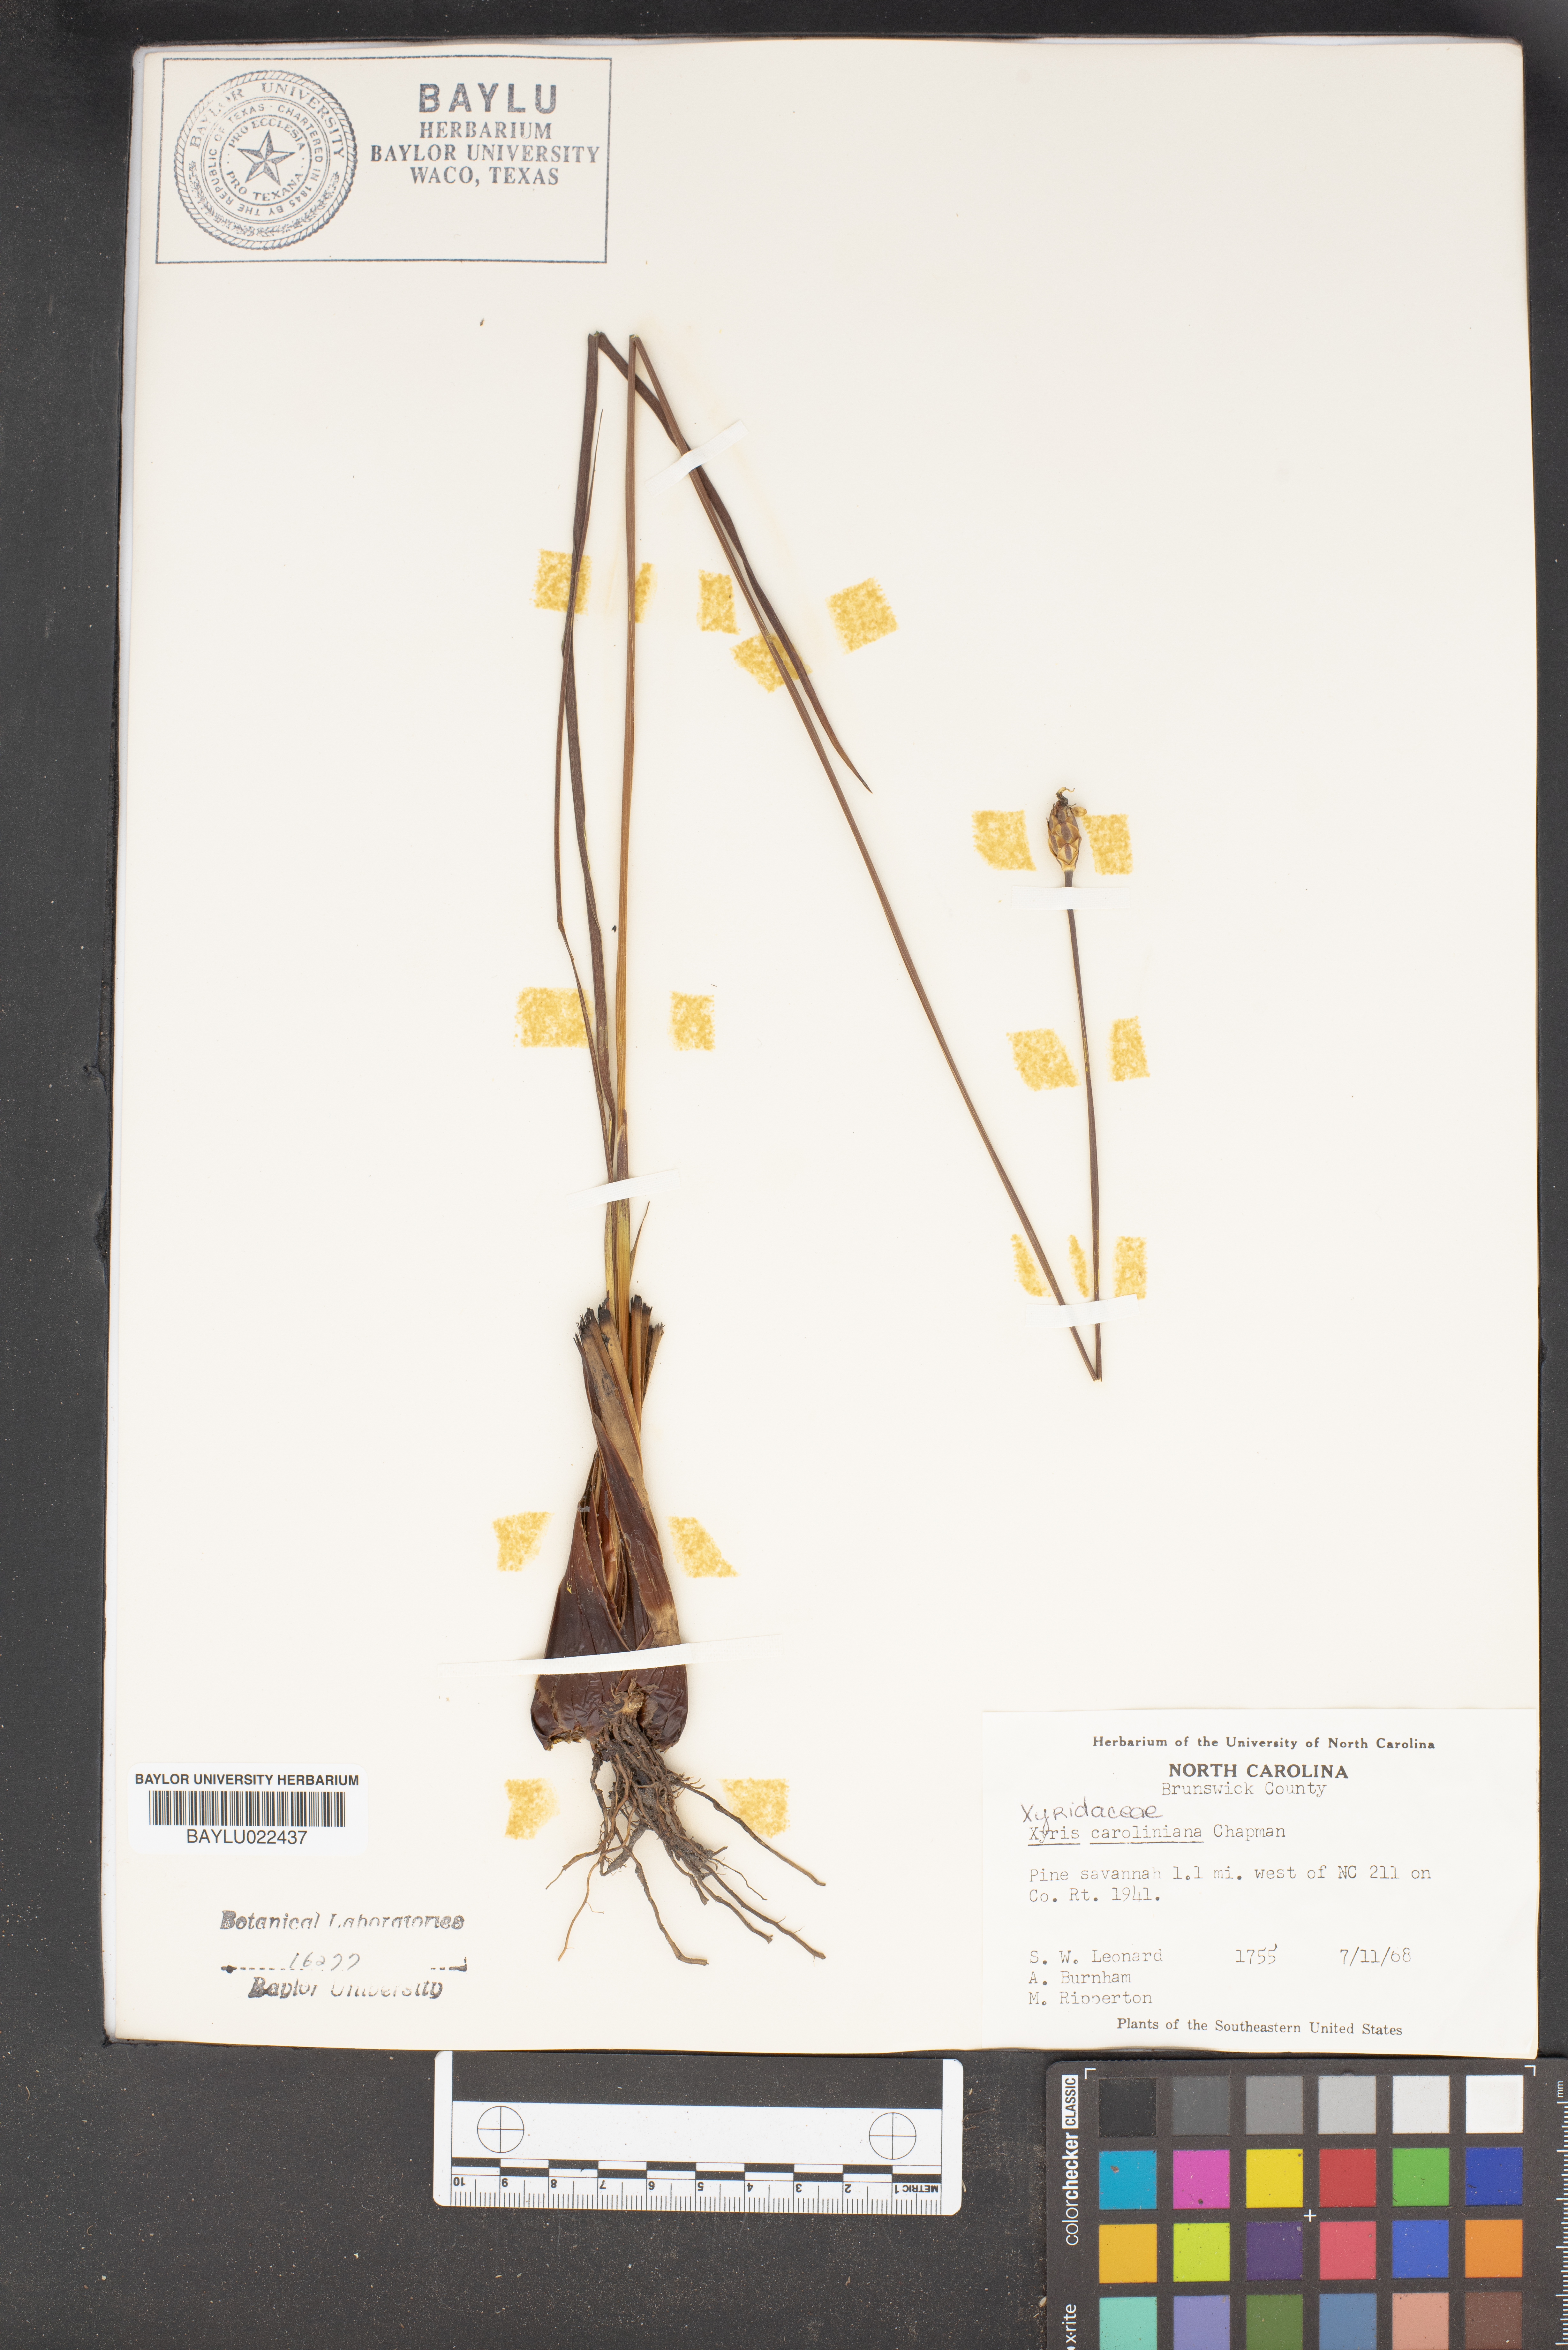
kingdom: Plantae
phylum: Tracheophyta
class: Liliopsida
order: Poales
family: Xyridaceae
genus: Xyris
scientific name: Xyris caroliniana
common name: Carolina yellow-eyed-grass
